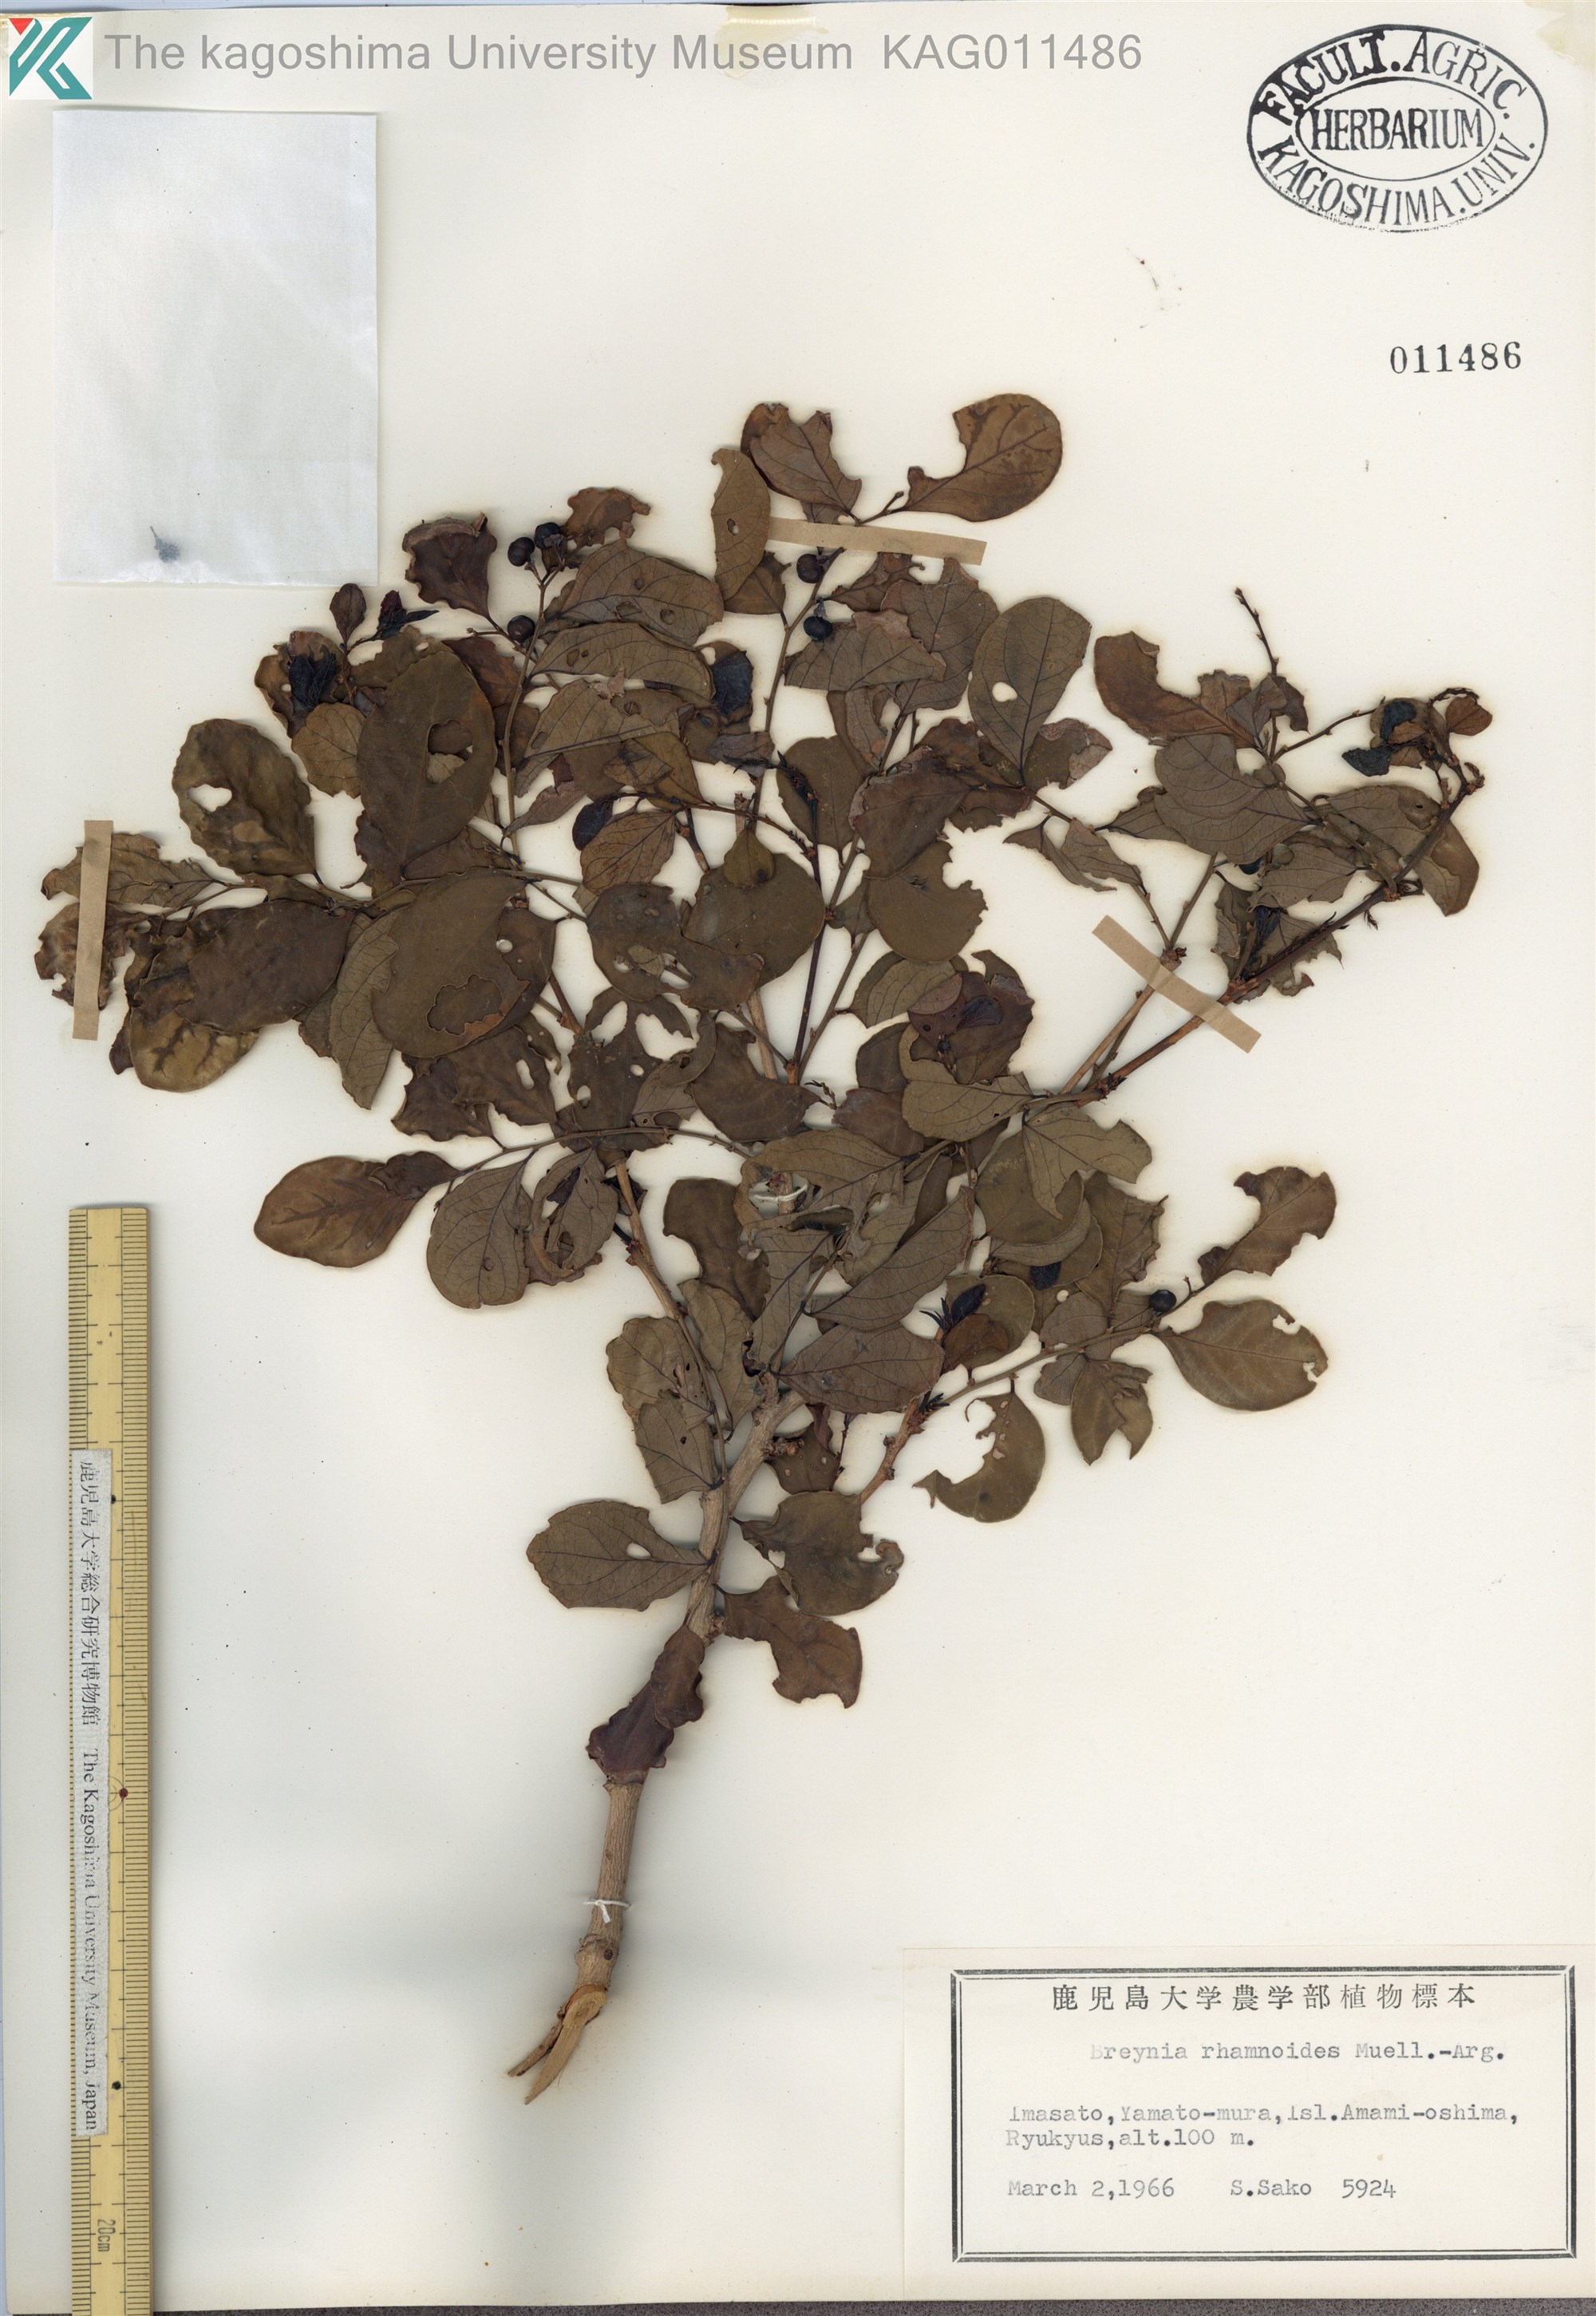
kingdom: Plantae
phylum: Tracheophyta
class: Magnoliopsida
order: Malpighiales
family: Phyllanthaceae
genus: Breynia
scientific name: Breynia vitis-idaea
